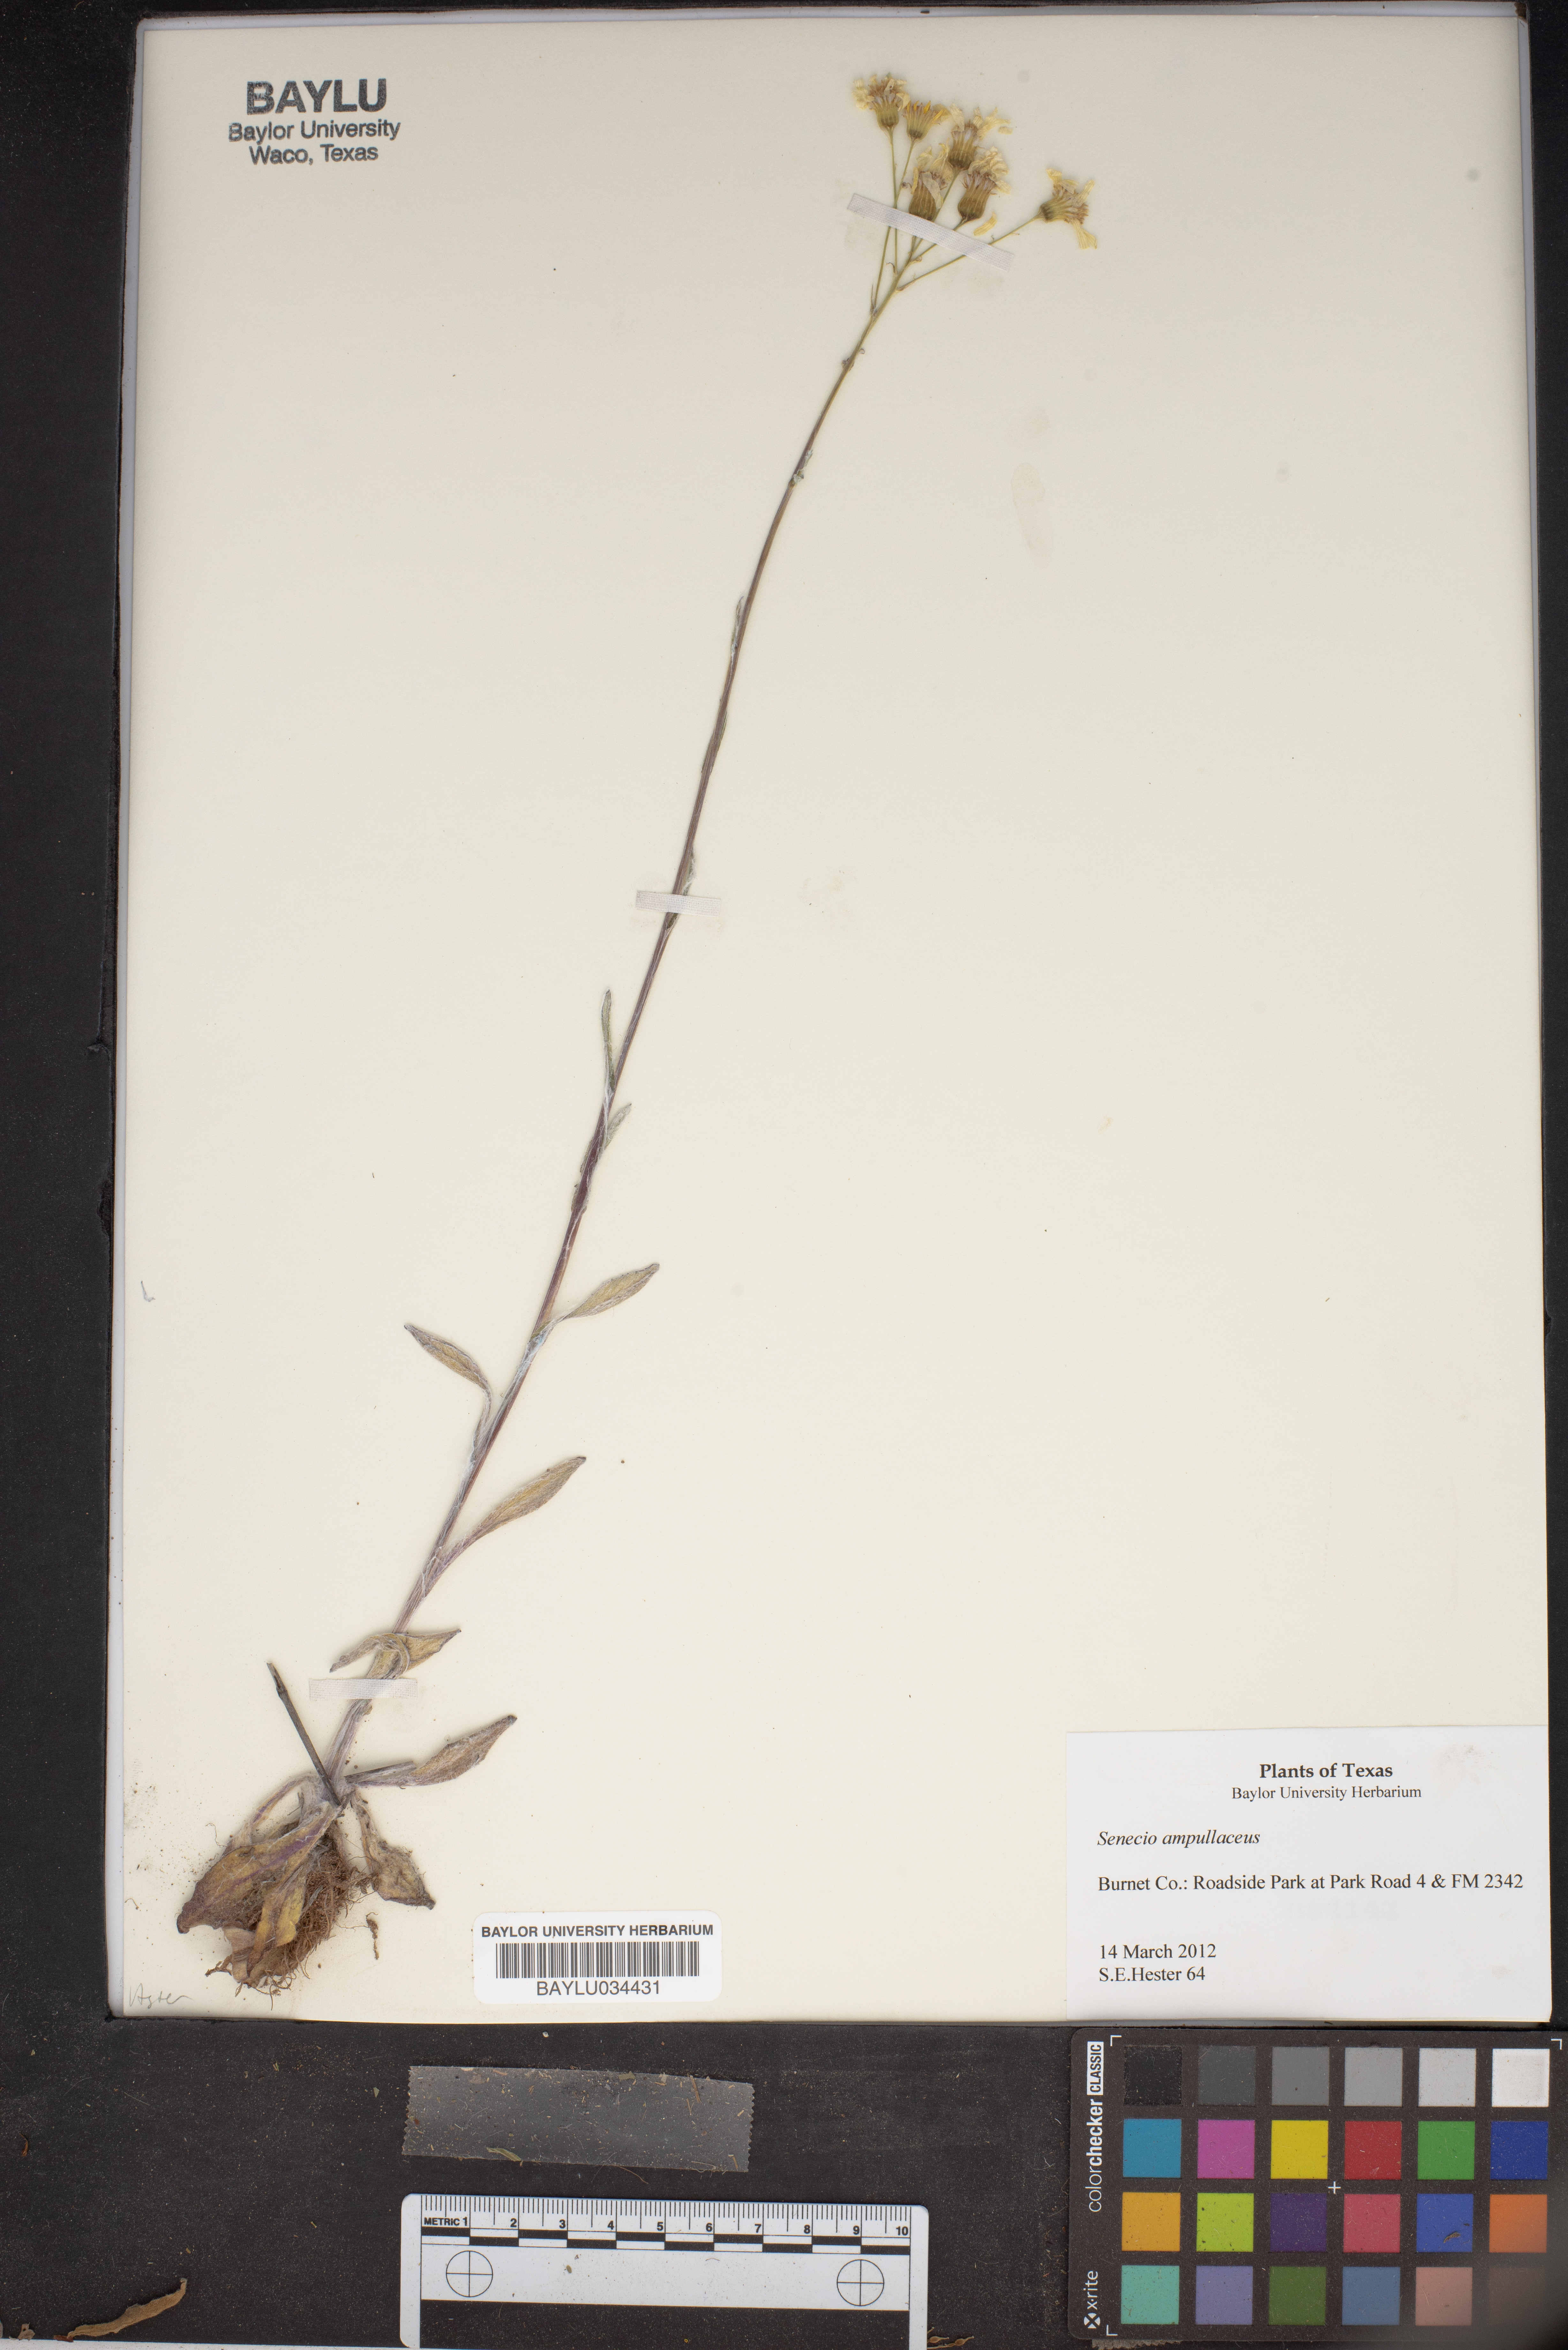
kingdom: Plantae
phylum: Tracheophyta
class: Magnoliopsida
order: Asterales
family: Asteraceae
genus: Senecio
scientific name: Senecio ampullaceus
